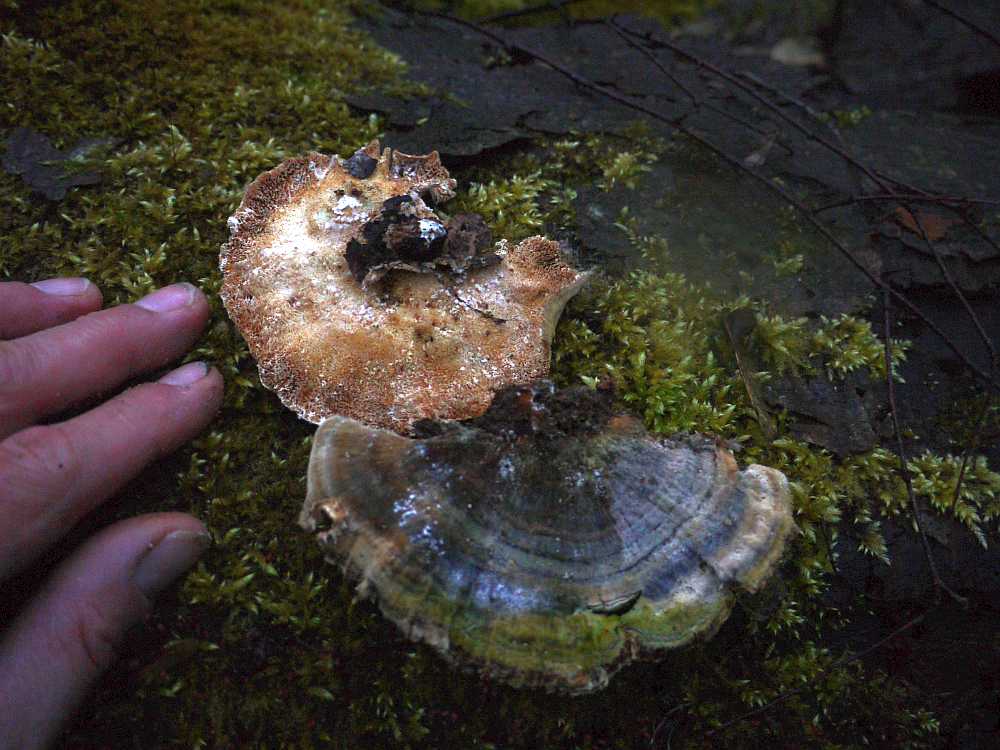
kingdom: Fungi
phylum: Basidiomycota
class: Agaricomycetes
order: Polyporales
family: Polyporaceae
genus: Trametes
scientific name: Trametes versicolor
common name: broget læderporesvamp
